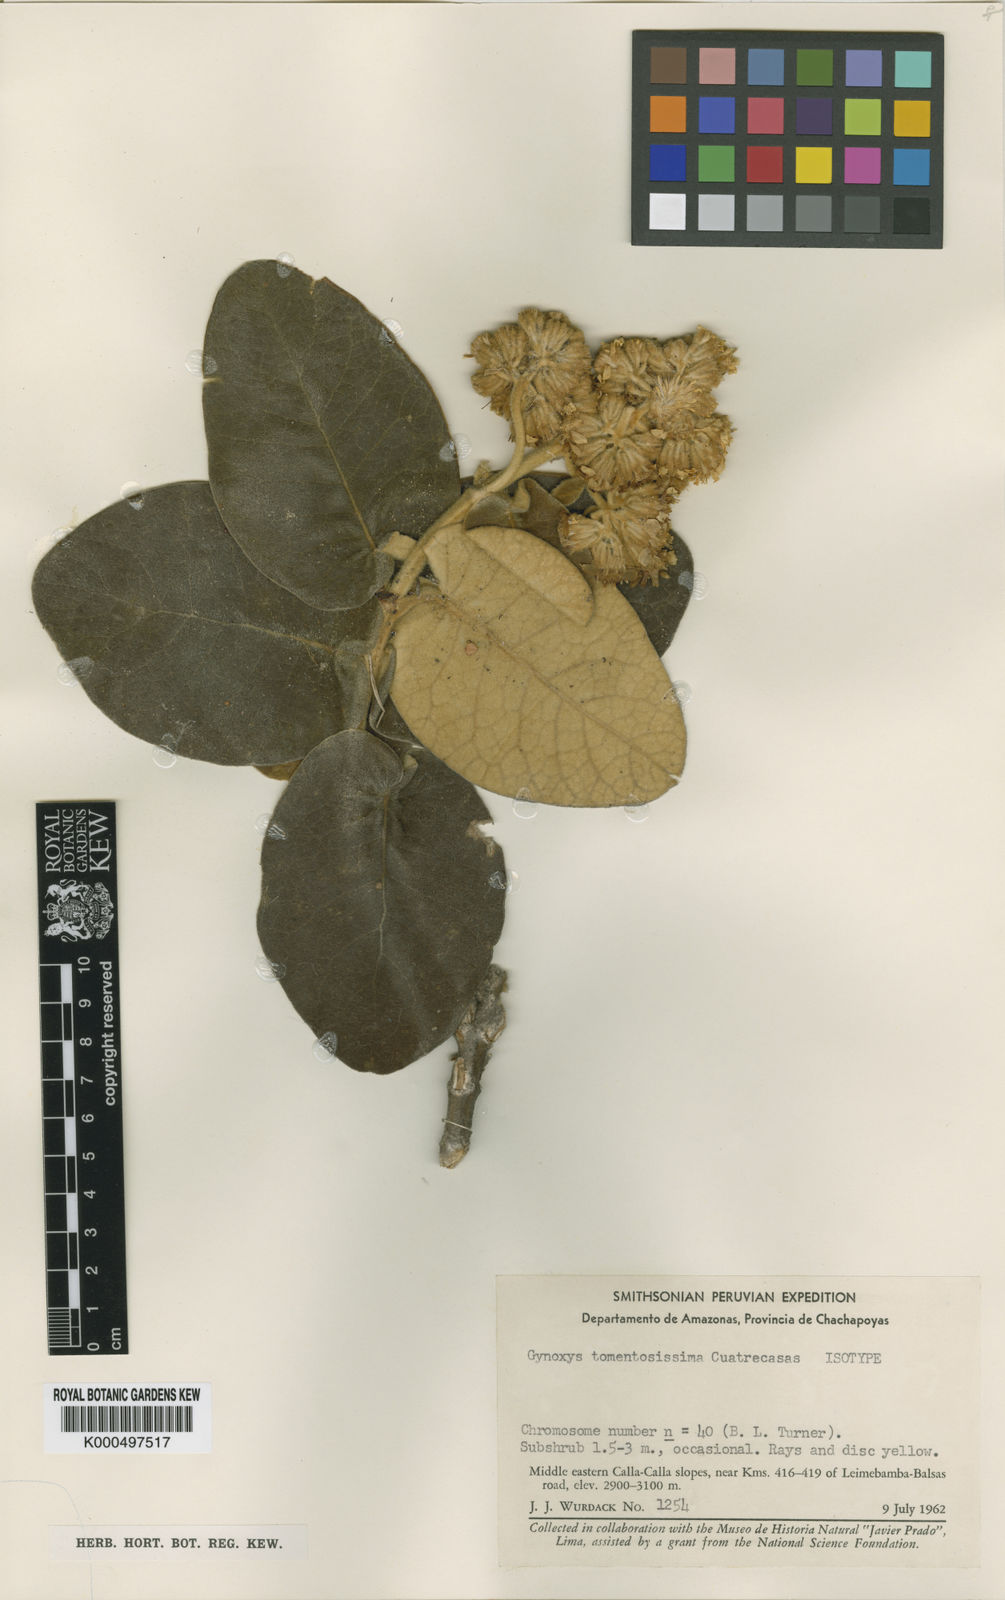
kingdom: Plantae
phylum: Tracheophyta
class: Magnoliopsida
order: Asterales
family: Asteraceae
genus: Gynoxys
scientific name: Gynoxys tomentosissima
